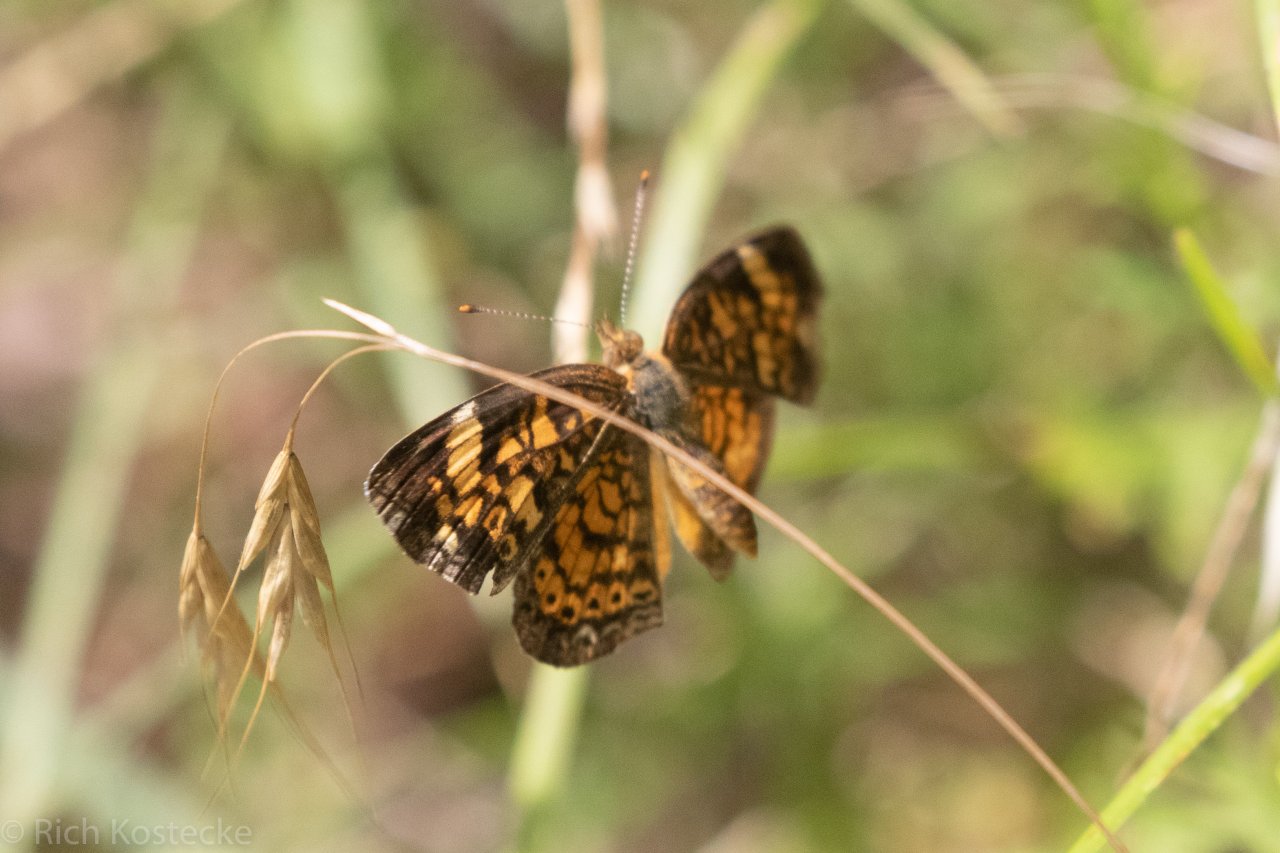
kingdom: Animalia
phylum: Arthropoda
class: Insecta
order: Lepidoptera
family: Nymphalidae
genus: Phyciodes
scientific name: Phyciodes tharos
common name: Pearl Crescent
